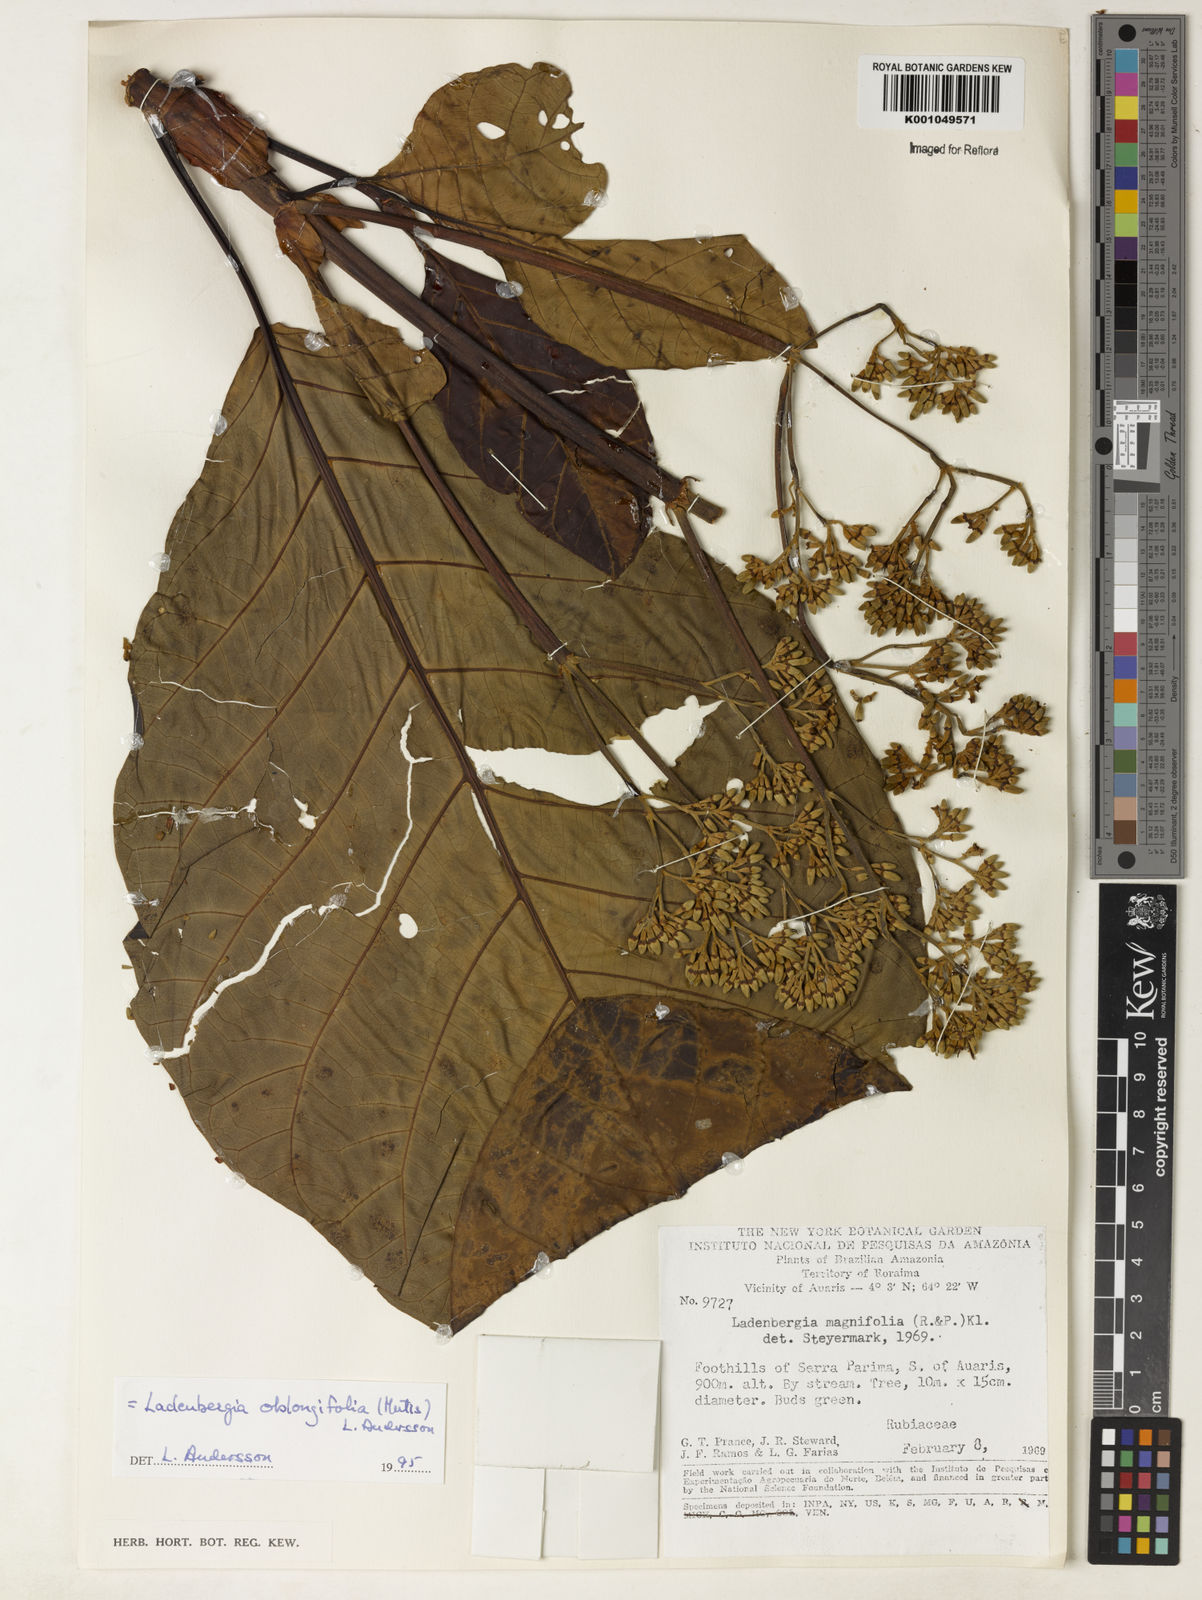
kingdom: Plantae
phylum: Tracheophyta
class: Magnoliopsida
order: Gentianales
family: Rubiaceae
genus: Ladenbergia
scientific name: Ladenbergia oblongifolia
